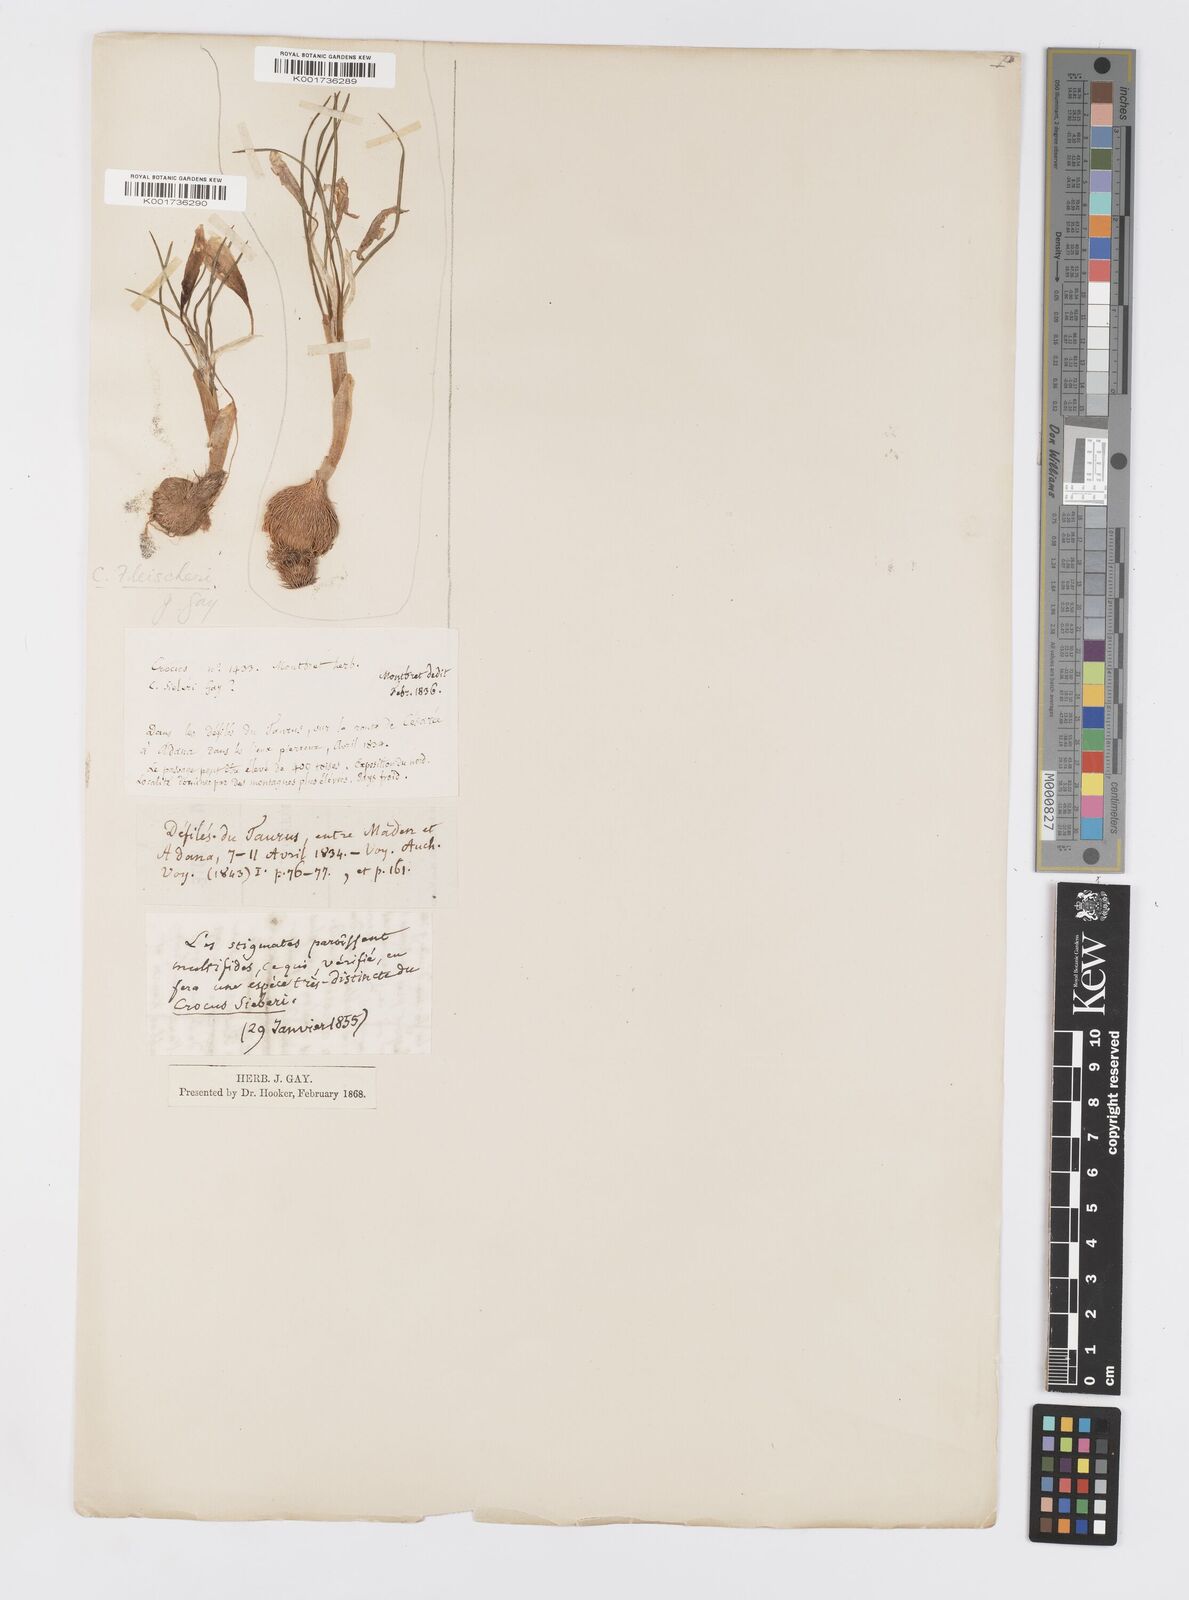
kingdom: Plantae
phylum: Tracheophyta
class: Liliopsida
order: Asparagales
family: Iridaceae
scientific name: Iridaceae
